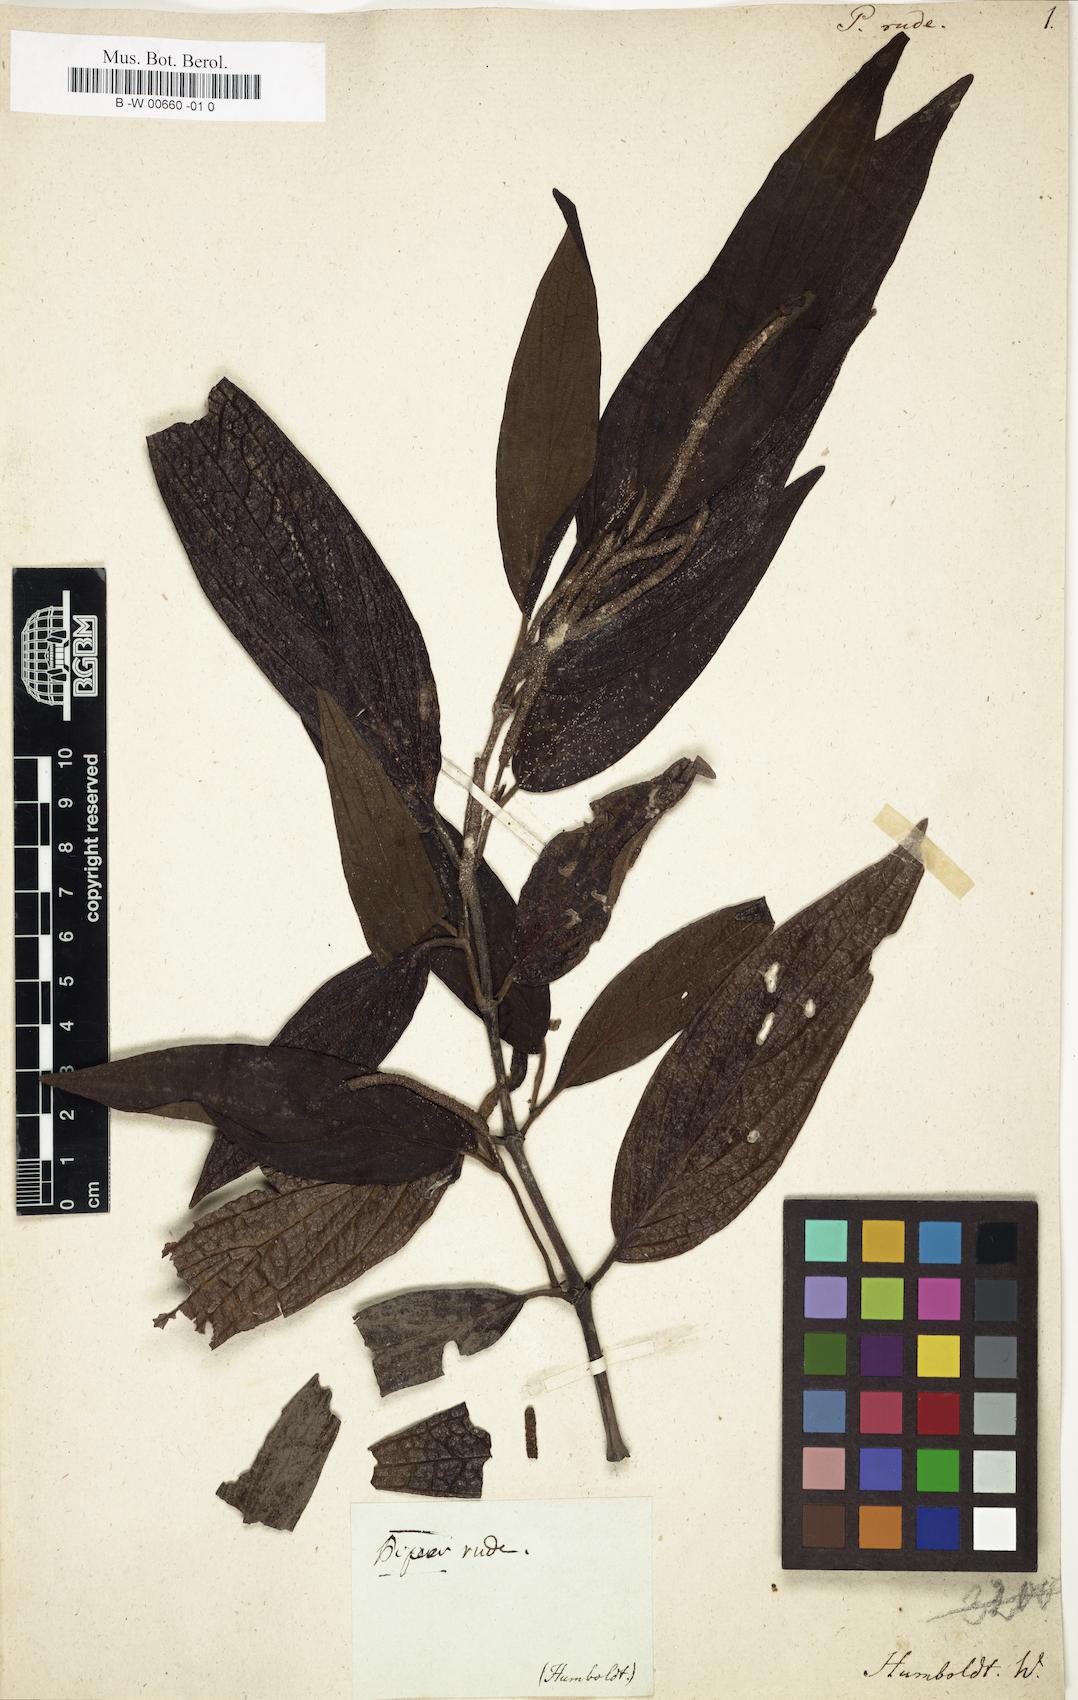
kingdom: Plantae
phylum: Tracheophyta
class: Magnoliopsida
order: Piperales
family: Piperaceae
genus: Piper
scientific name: Piper rude
